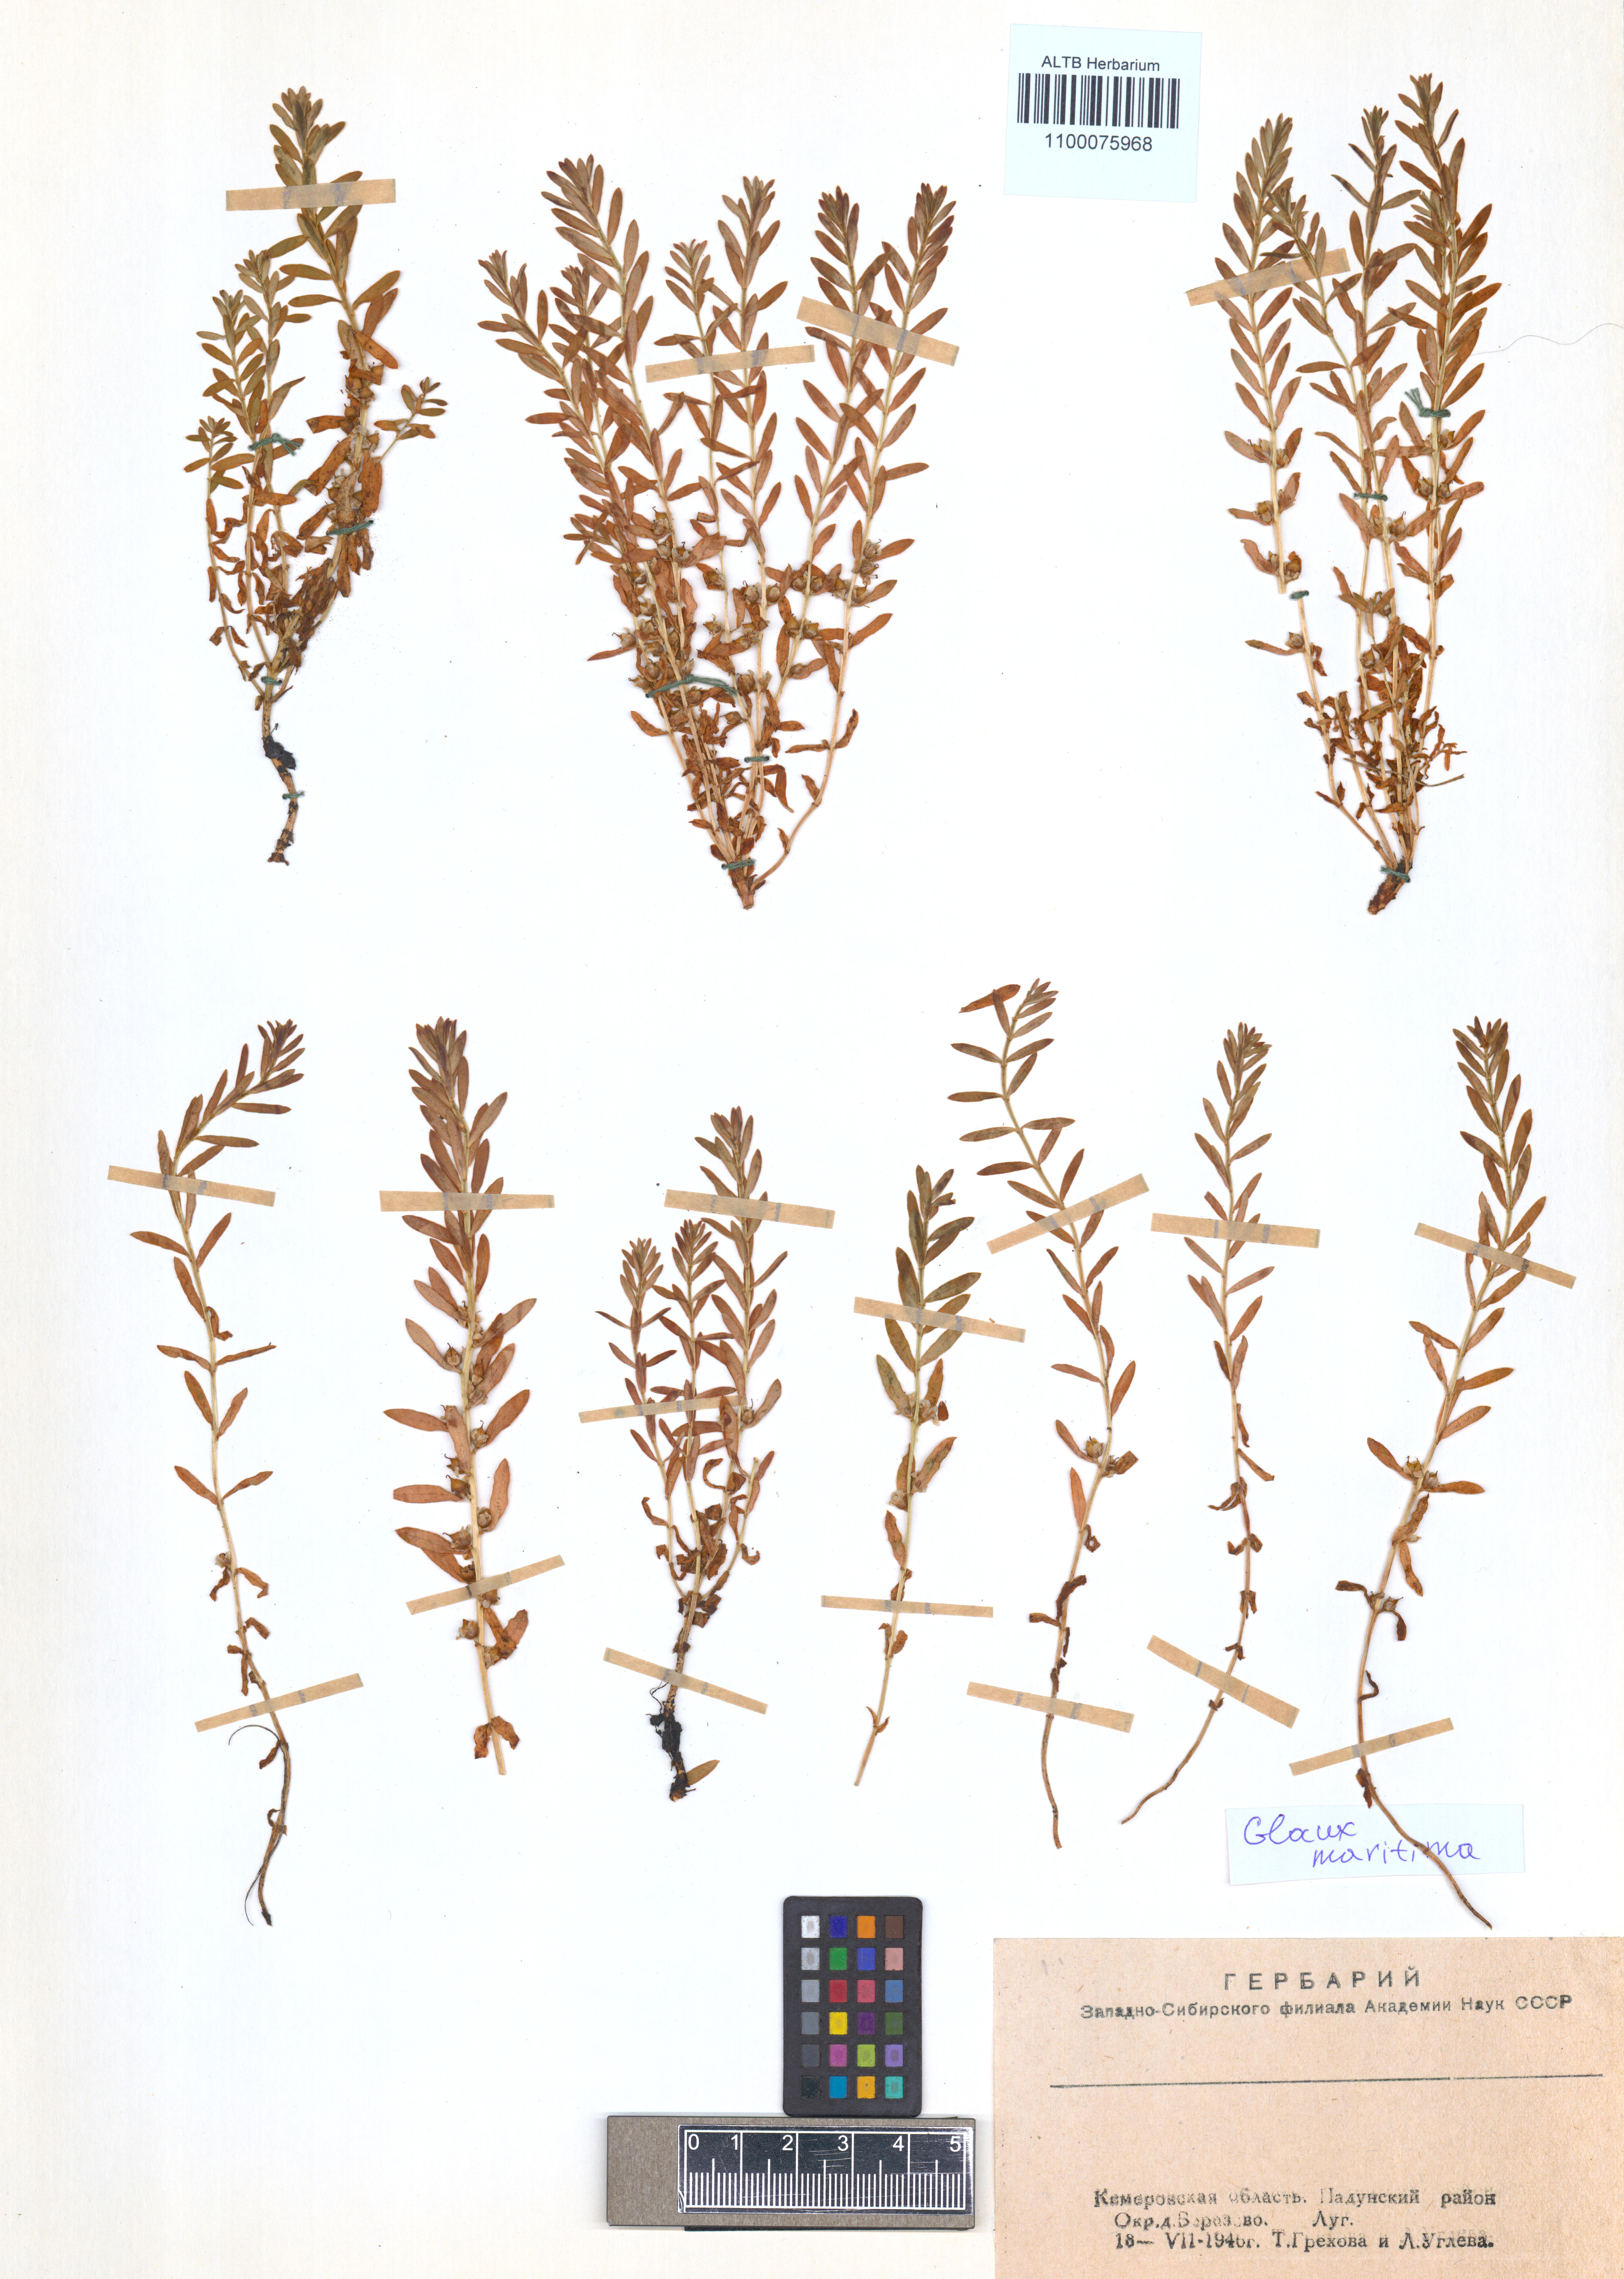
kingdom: Plantae
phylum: Tracheophyta
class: Magnoliopsida
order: Ericales
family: Primulaceae
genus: Lysimachia
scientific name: Lysimachia maritima
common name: Sea milkwort
